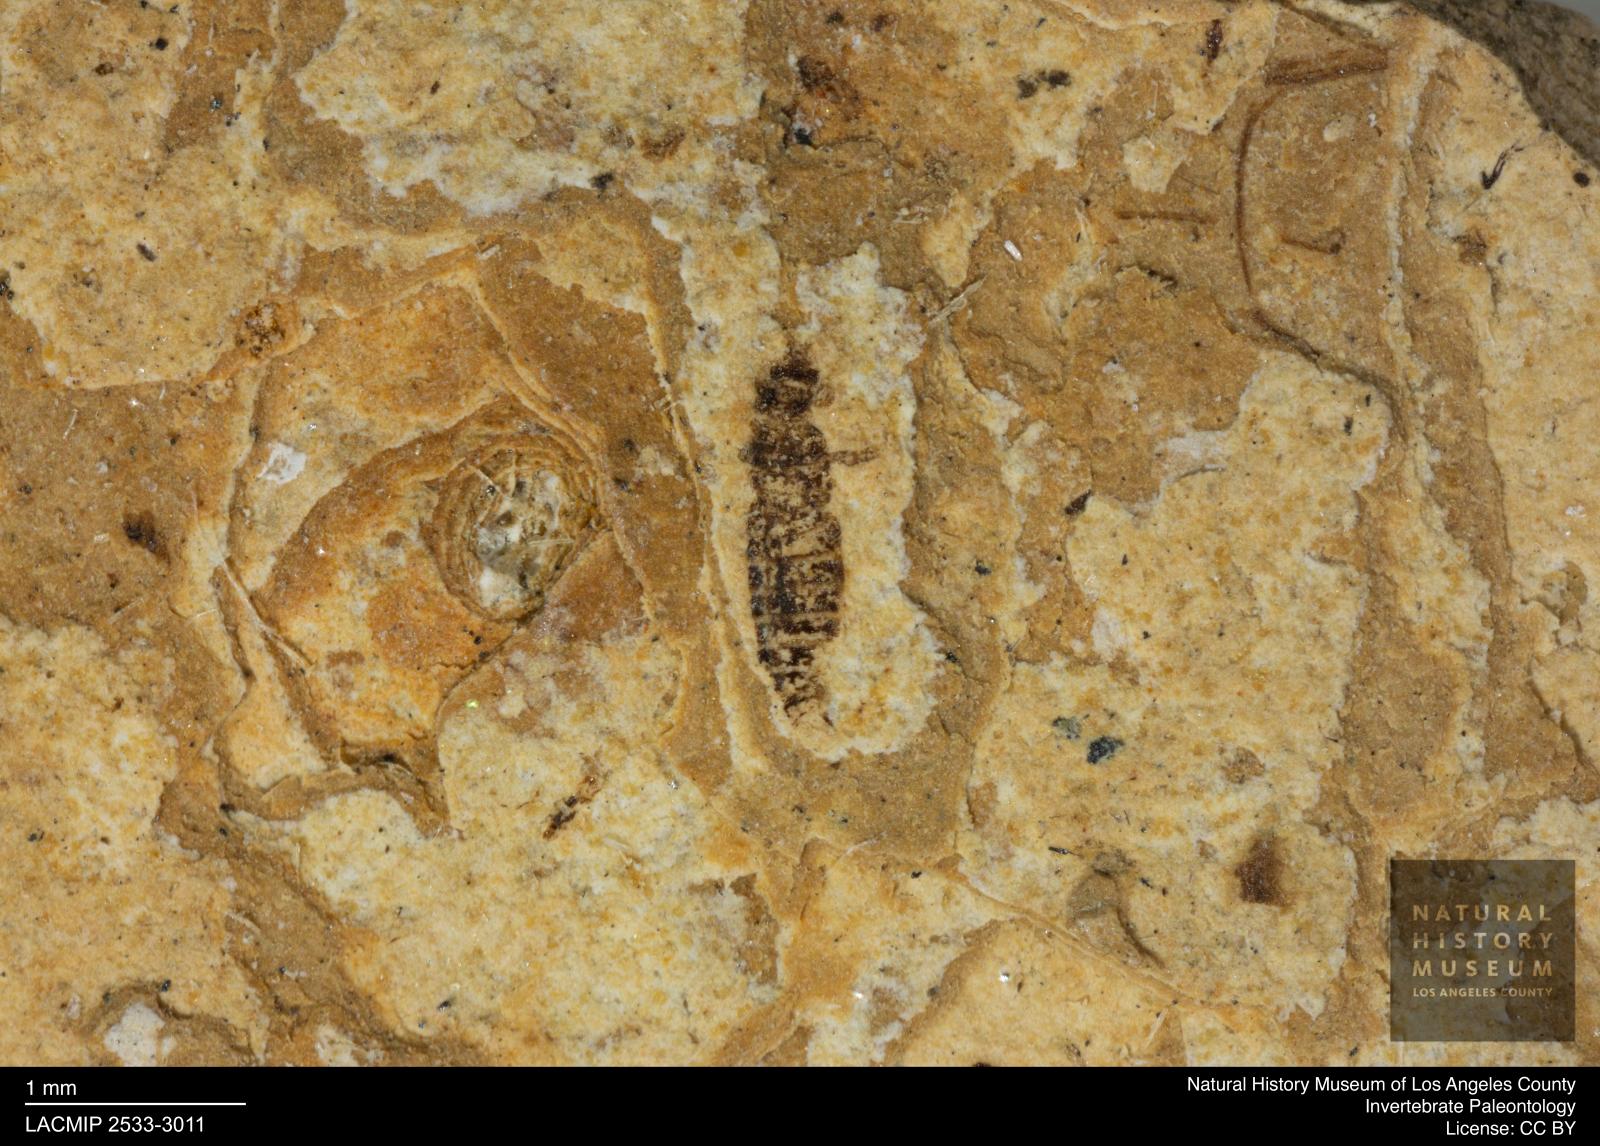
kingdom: Animalia
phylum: Arthropoda
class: Insecta
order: Thysanoptera
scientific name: Thysanoptera
